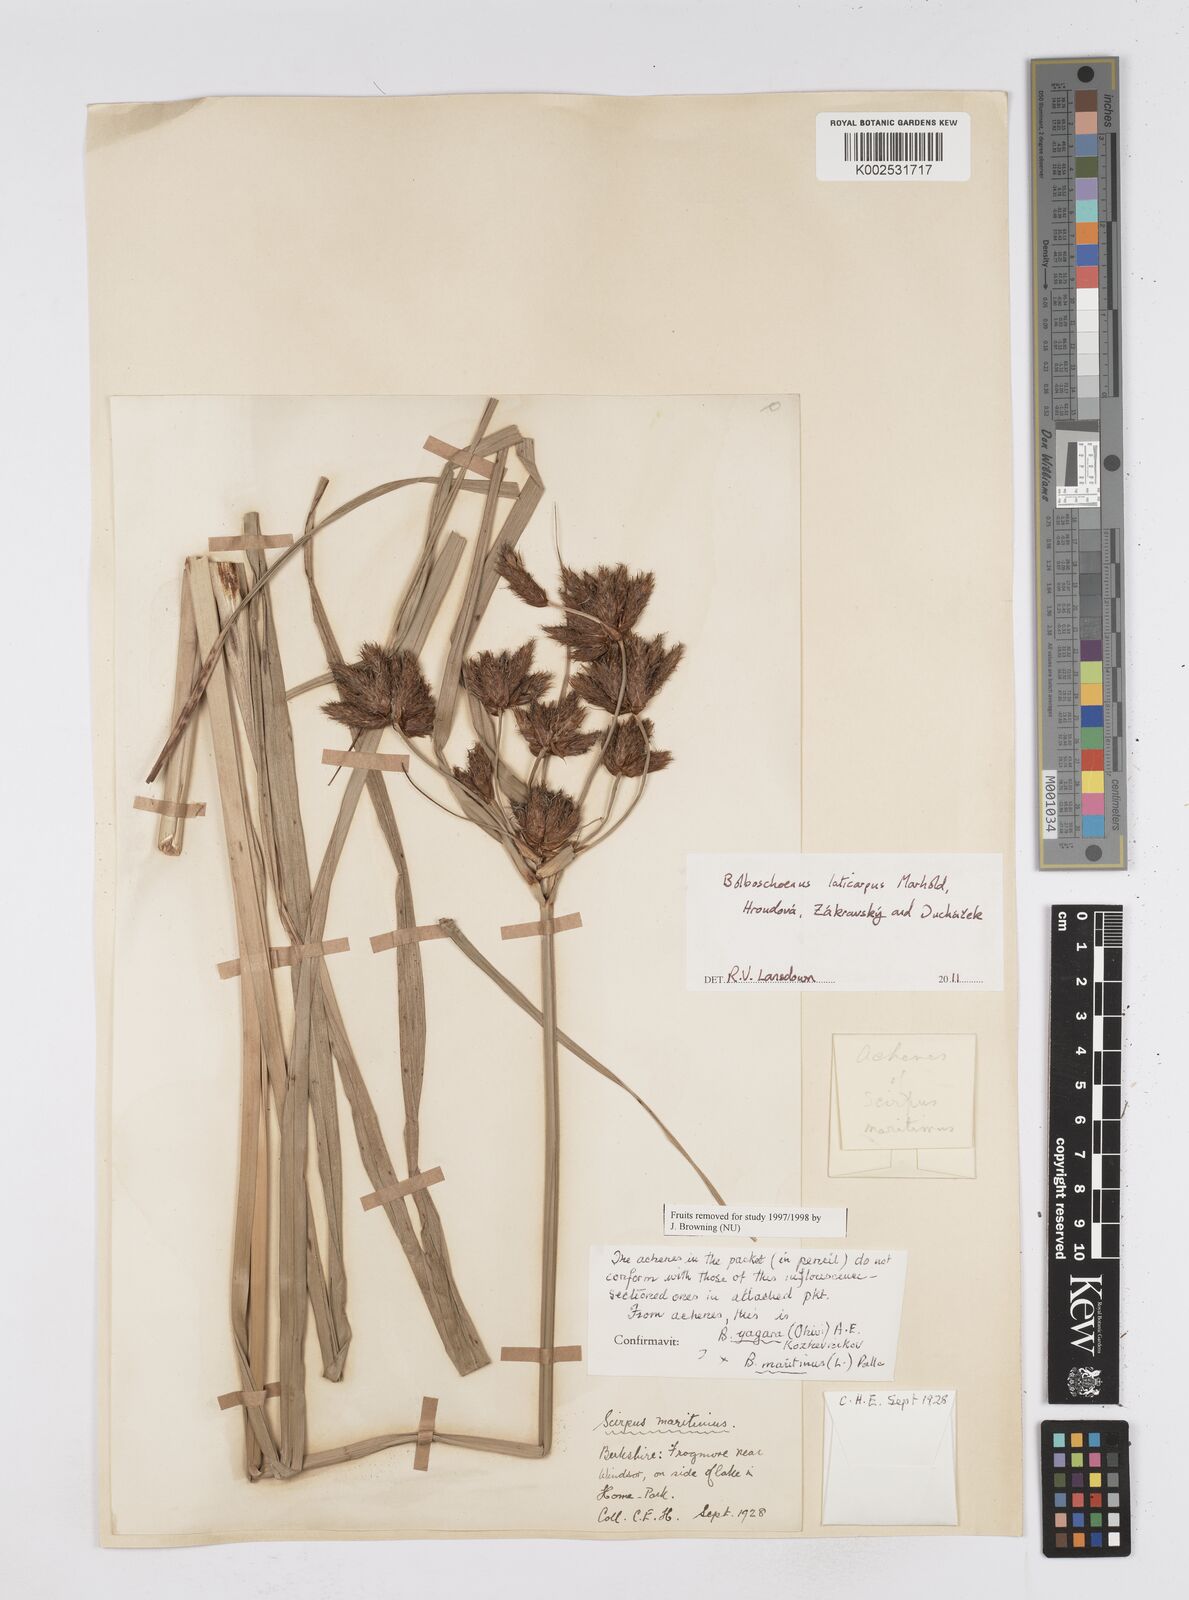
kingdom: Plantae
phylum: Tracheophyta
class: Liliopsida
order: Poales
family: Cyperaceae
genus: Bolboschoenus
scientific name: Bolboschoenus laticarpus
